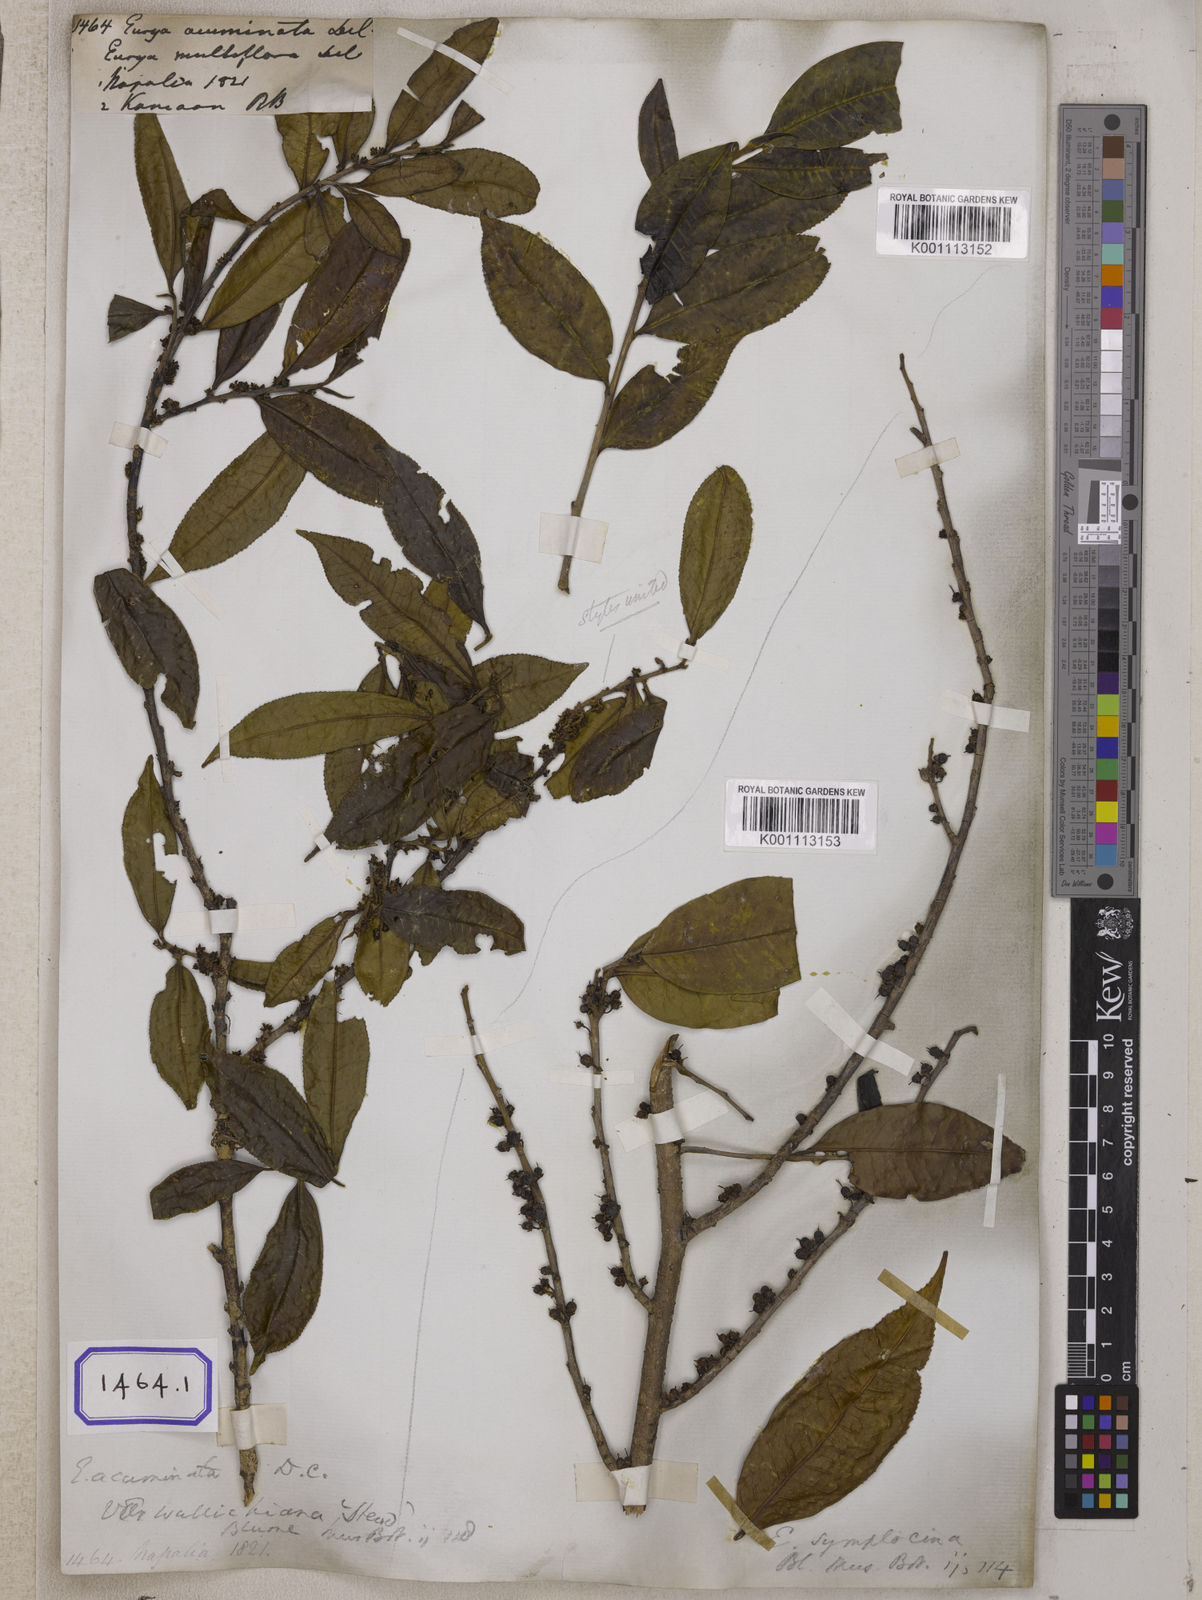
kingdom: Plantae
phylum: Tracheophyta
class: Magnoliopsida
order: Ericales
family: Pentaphylacaceae
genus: Eurya
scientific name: Eurya acuminata
